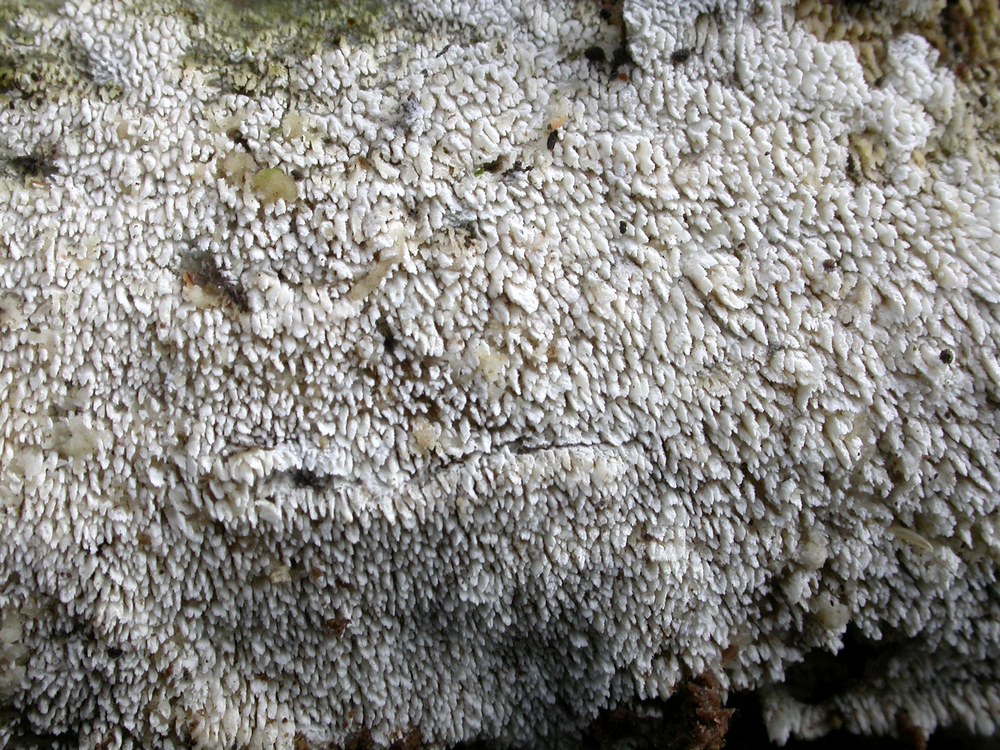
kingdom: Fungi
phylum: Basidiomycota
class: Agaricomycetes
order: Hymenochaetales
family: Schizoporaceae
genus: Schizopora
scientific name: Schizopora paradoxa
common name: hvid tandsvamp
